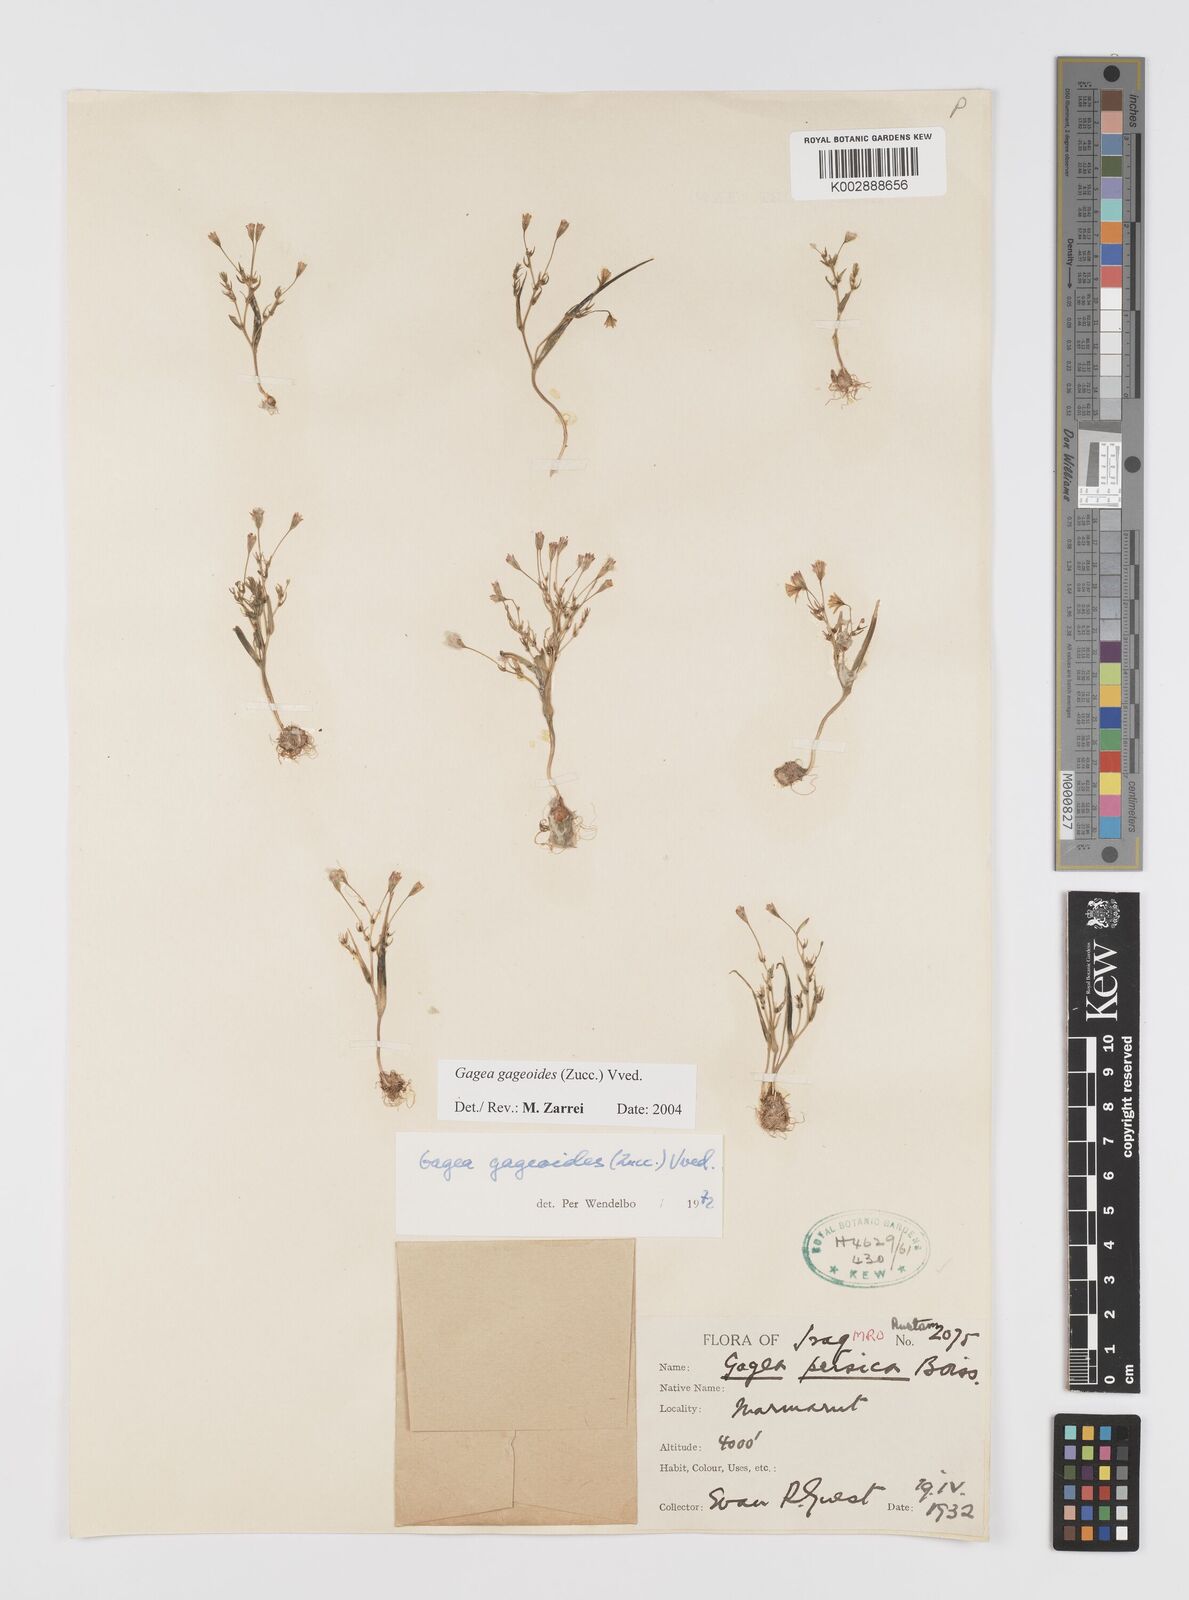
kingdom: Plantae
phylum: Tracheophyta
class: Liliopsida
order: Liliales
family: Liliaceae
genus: Gagea
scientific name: Gagea gageoides
